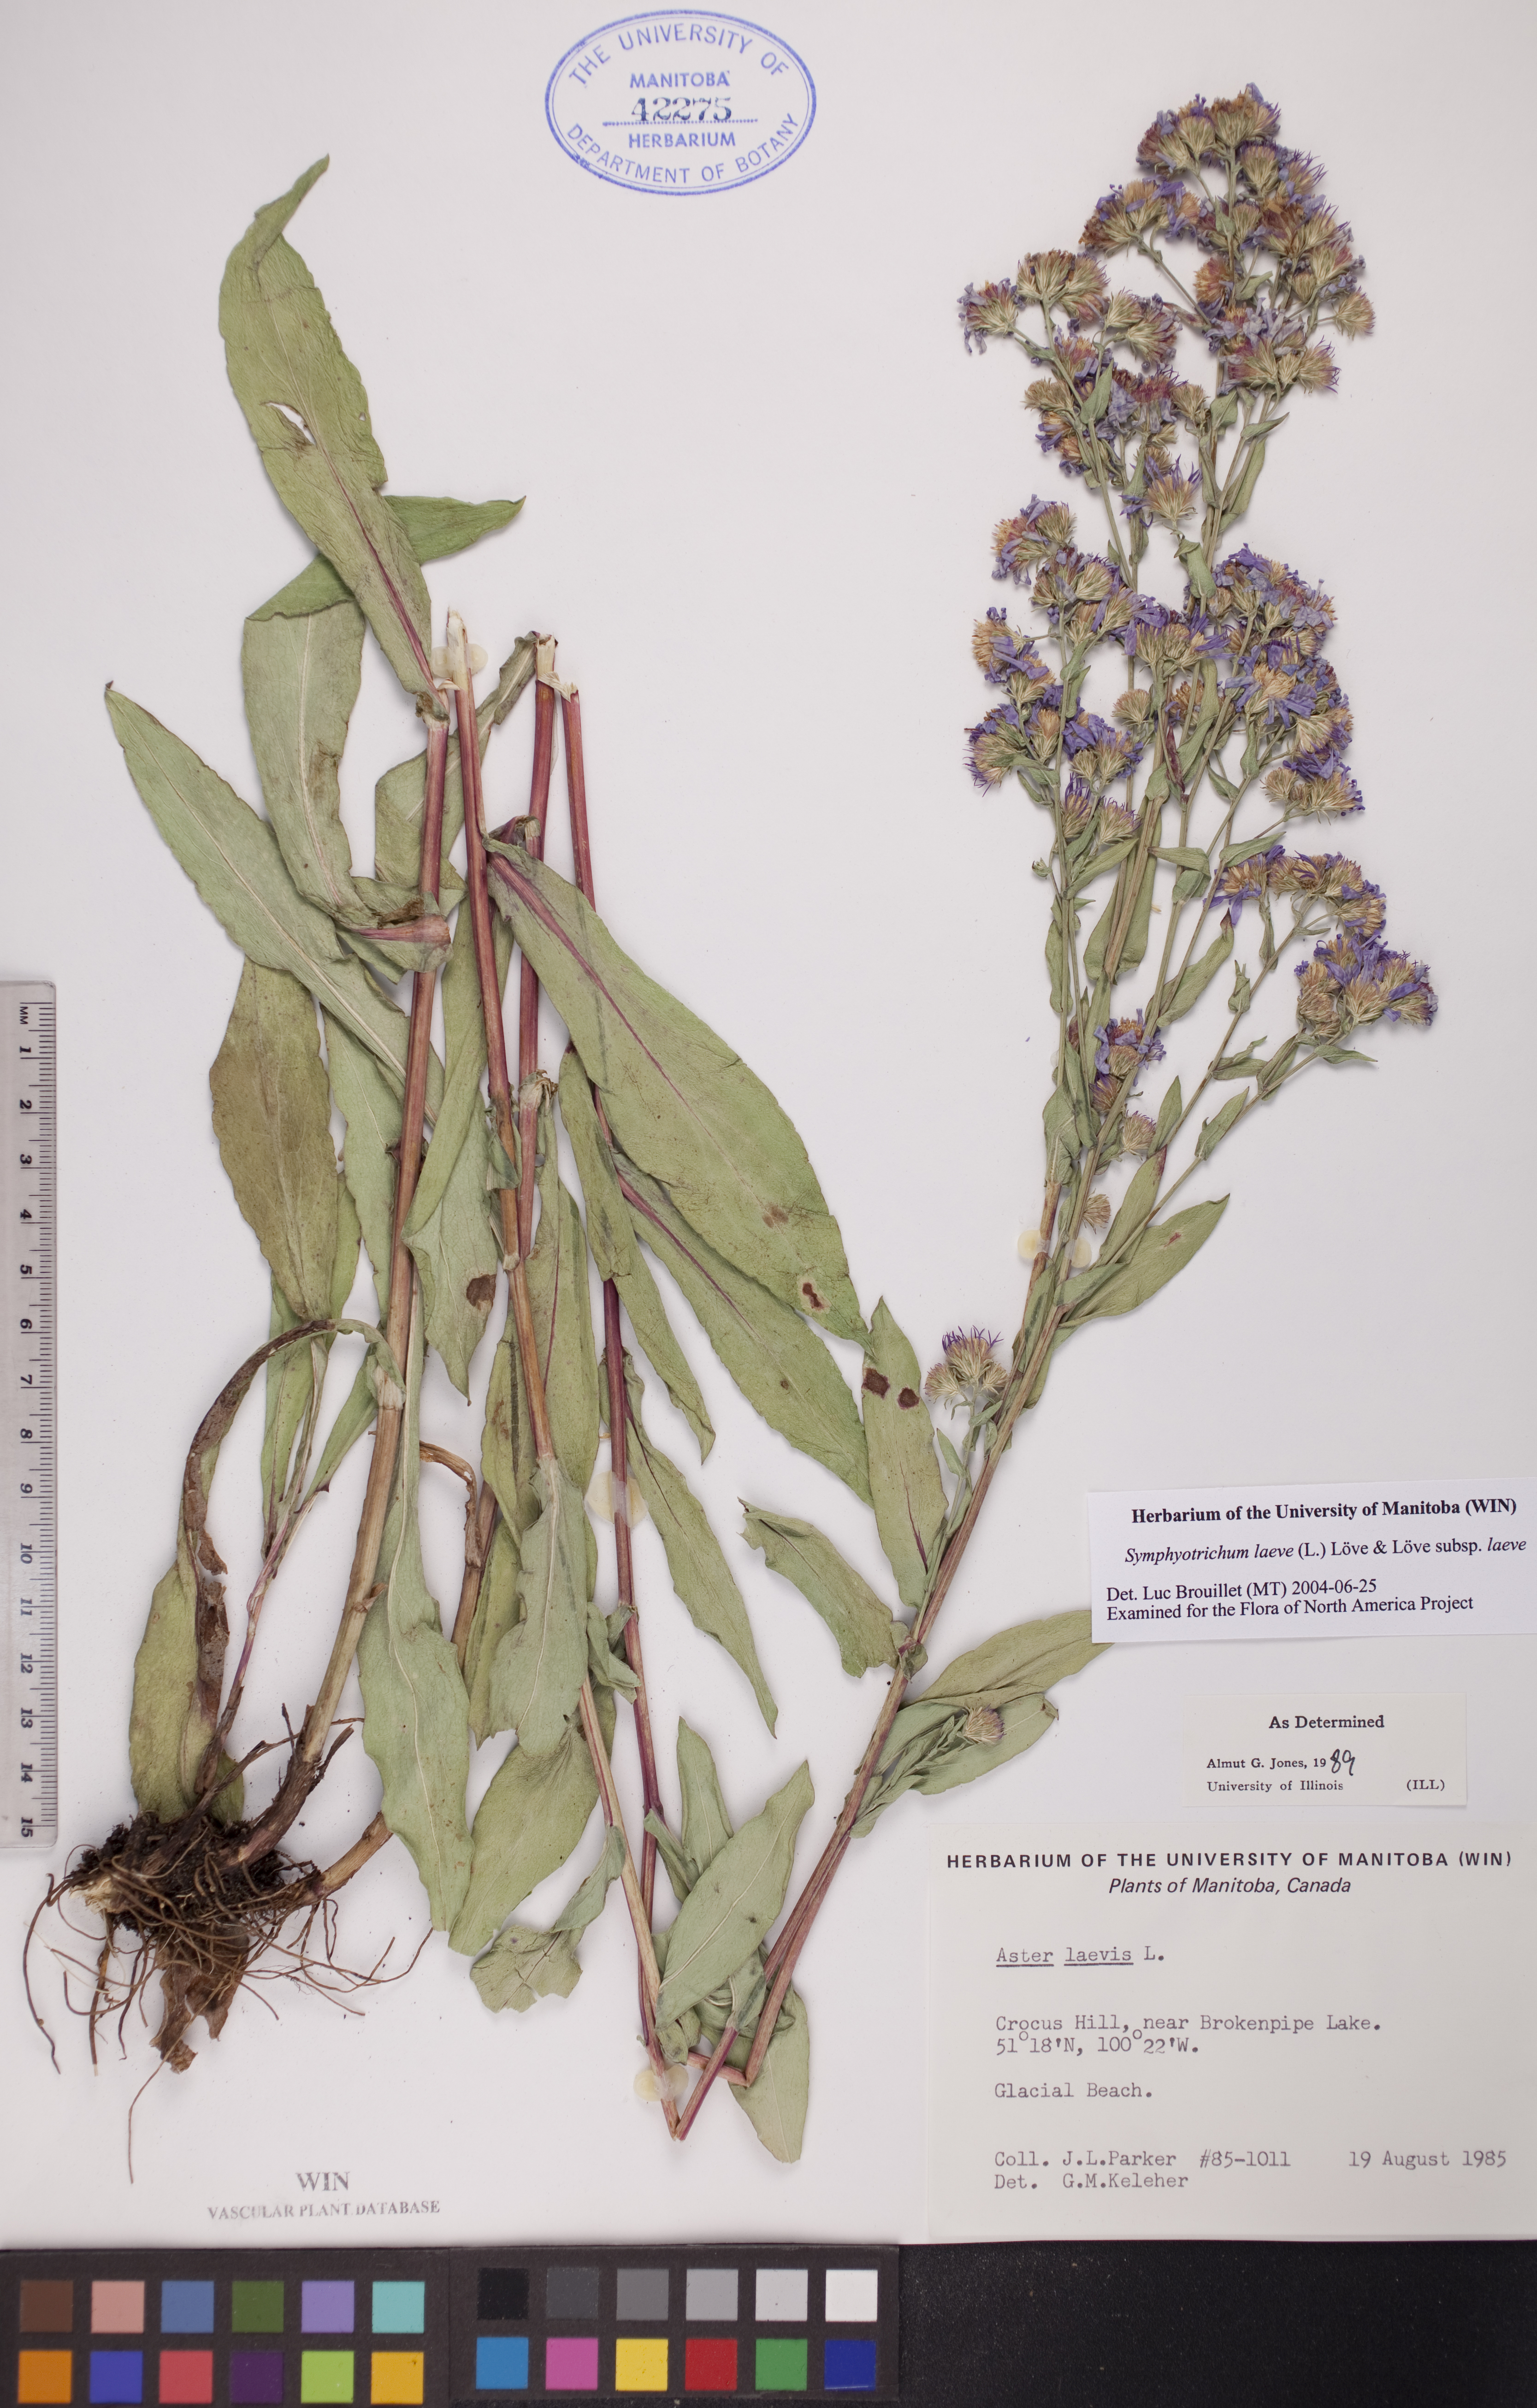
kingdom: Plantae
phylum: Tracheophyta
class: Magnoliopsida
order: Asterales
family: Asteraceae
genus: Symphyotrichum
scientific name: Symphyotrichum laeve
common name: Glaucous aster
